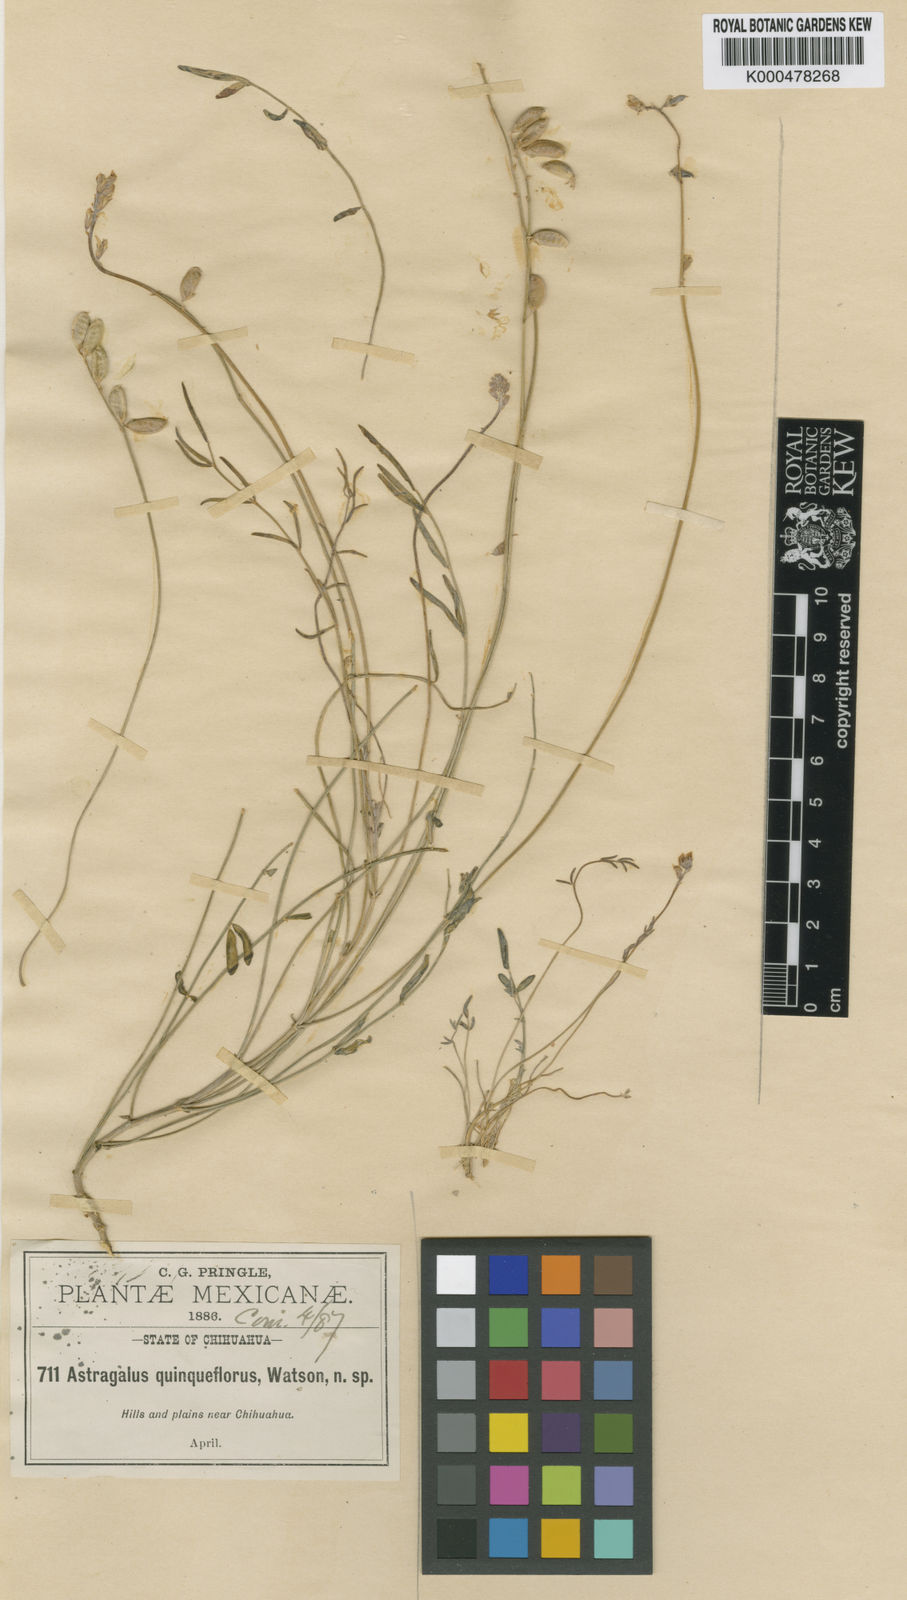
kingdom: Plantae
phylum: Tracheophyta
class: Magnoliopsida
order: Fabales
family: Fabaceae
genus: Astragalus
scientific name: Astragalus quinqueflorus
